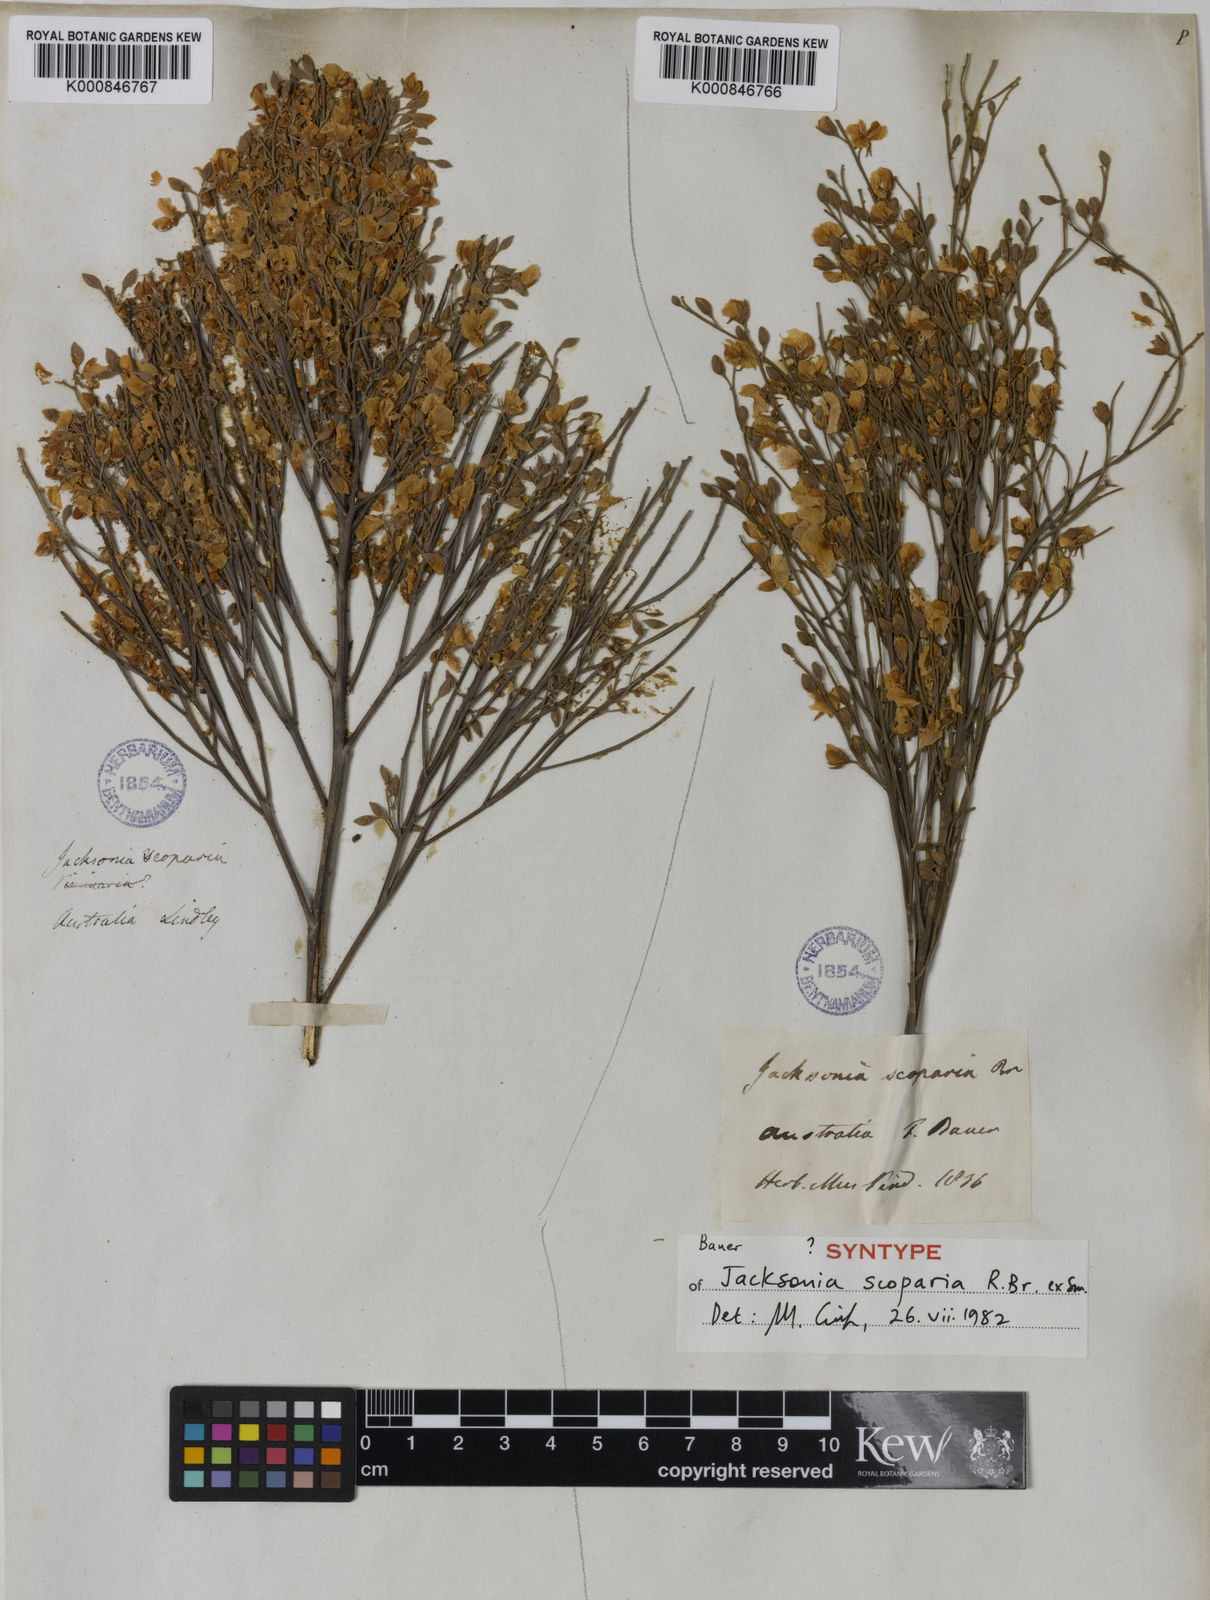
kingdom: Plantae
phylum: Tracheophyta
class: Magnoliopsida
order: Fabales
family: Fabaceae
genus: Jacksonia
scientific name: Jacksonia
